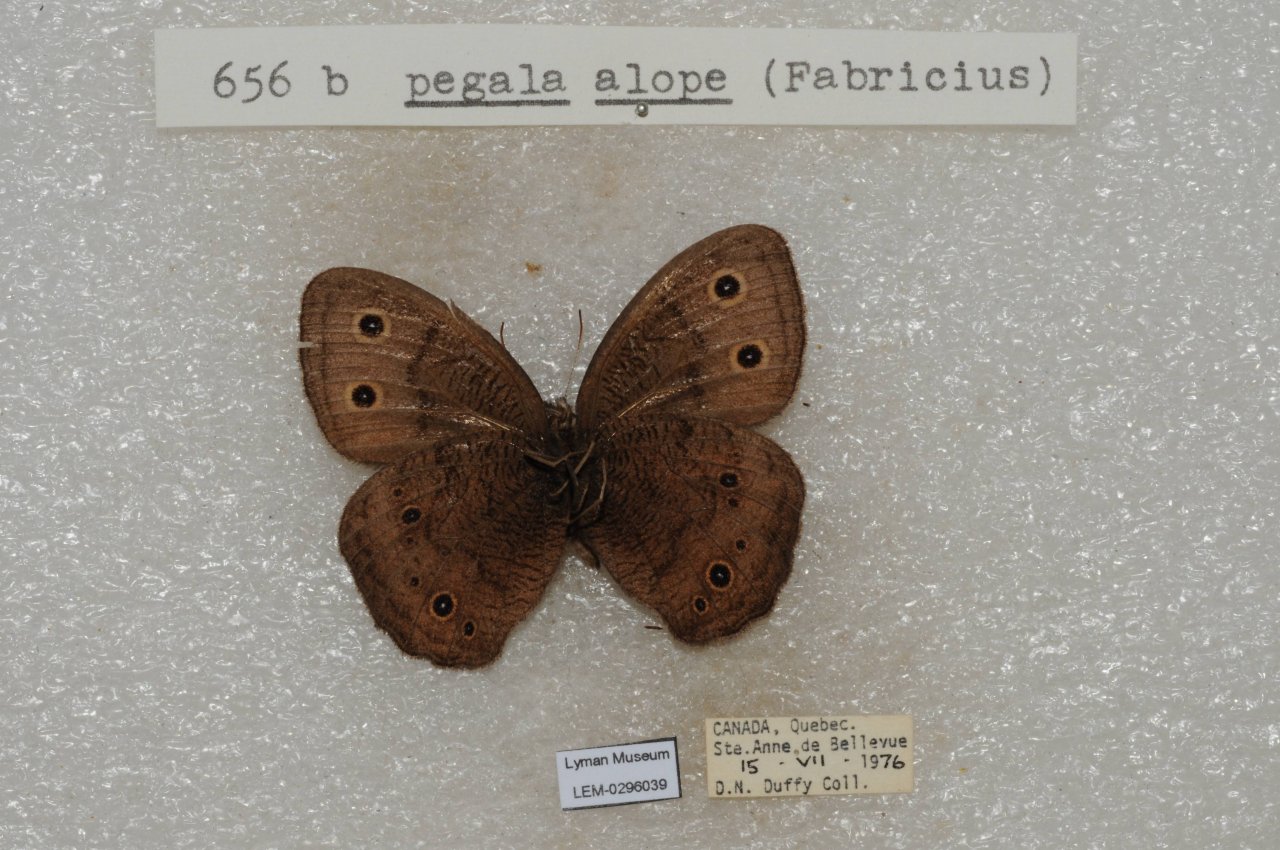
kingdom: Animalia
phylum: Arthropoda
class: Insecta
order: Lepidoptera
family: Nymphalidae
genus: Cercyonis
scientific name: Cercyonis pegala
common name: Common Wood-Nymph
